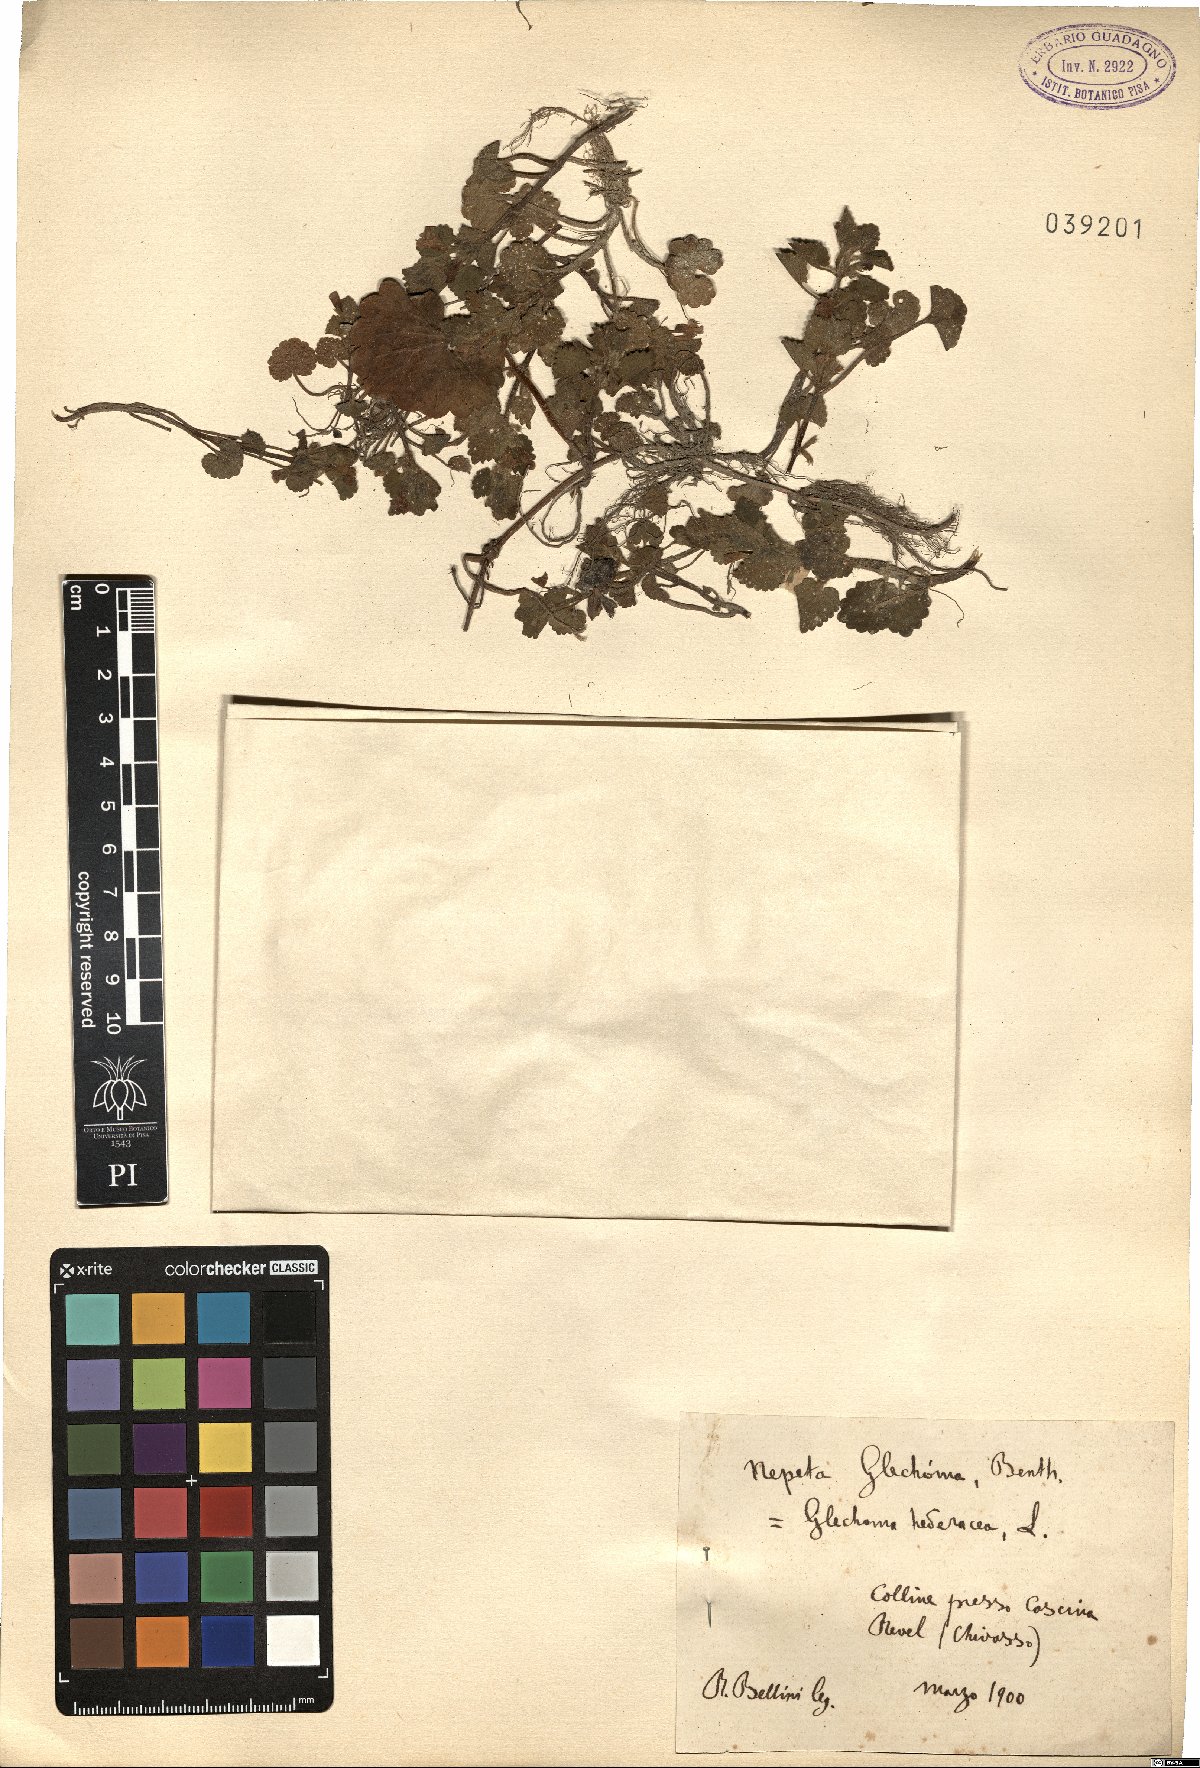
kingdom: Plantae
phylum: Tracheophyta
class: Magnoliopsida
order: Lamiales
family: Lamiaceae
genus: Glechoma
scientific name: Glechoma hederacea
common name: Ground ivy
